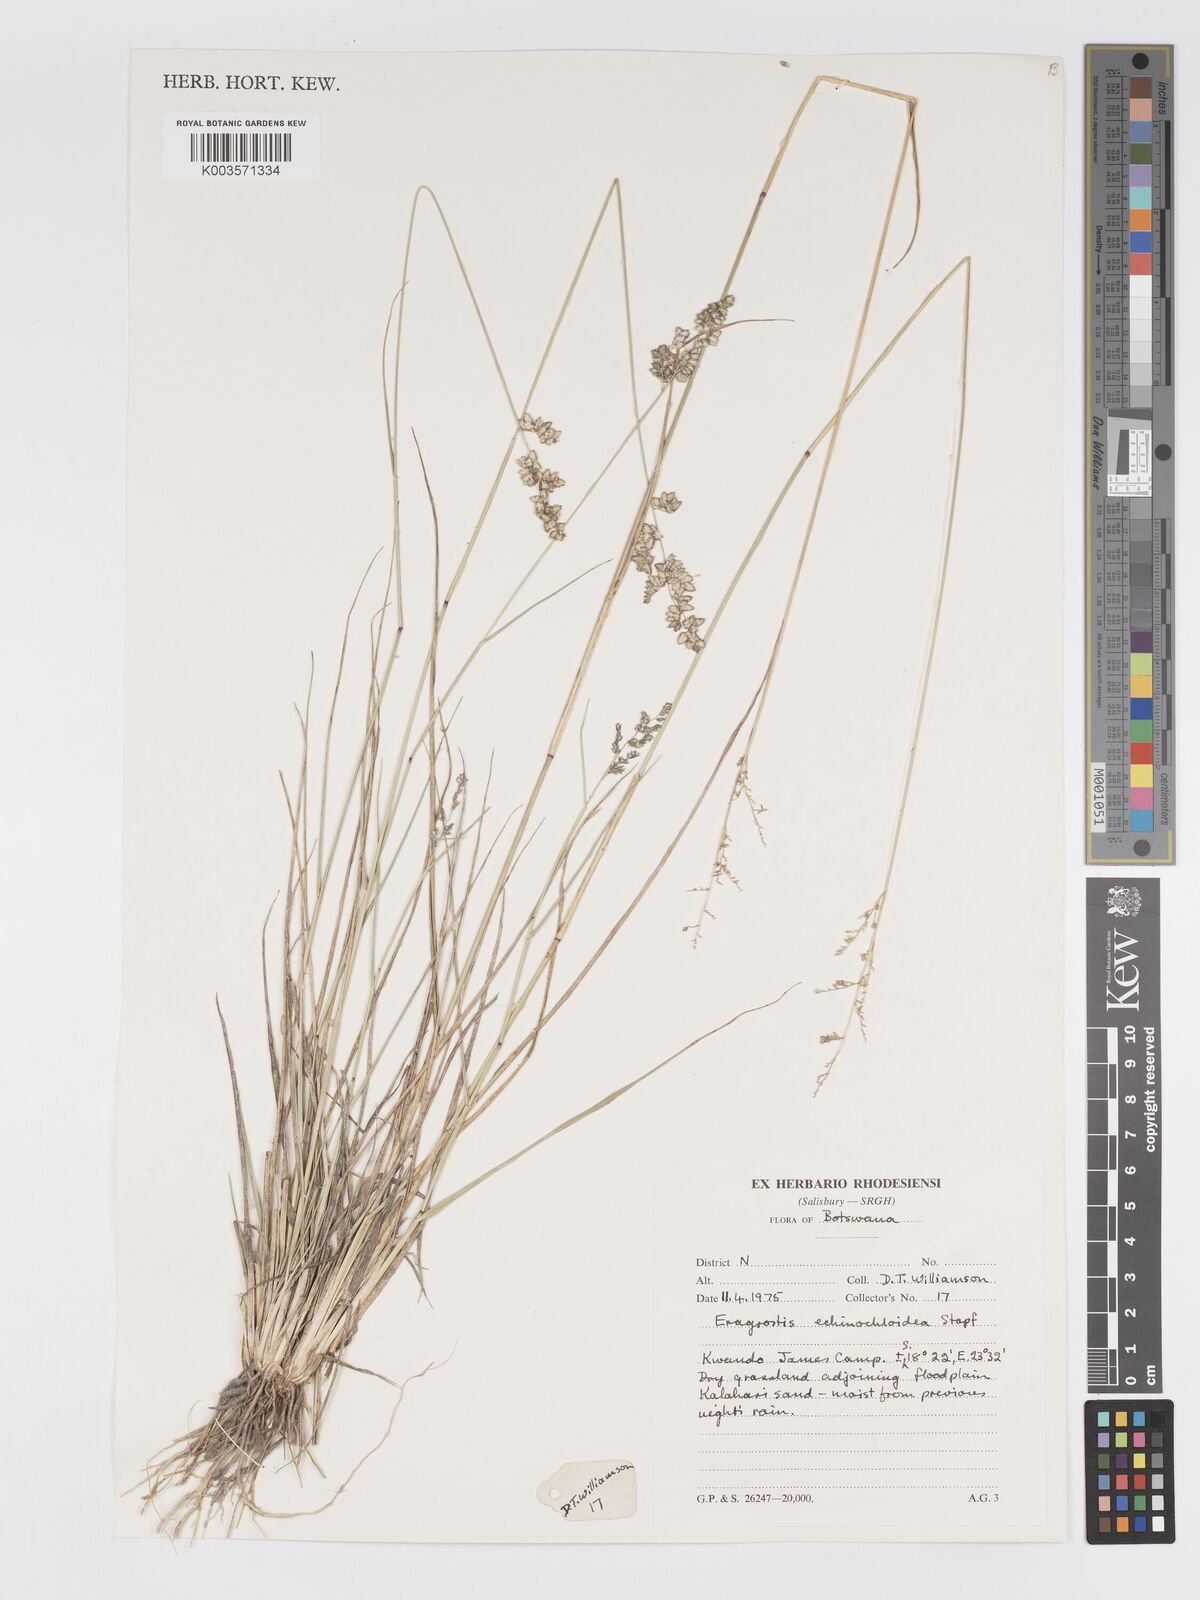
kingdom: Plantae
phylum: Tracheophyta
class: Liliopsida
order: Poales
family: Poaceae
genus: Eragrostis
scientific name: Eragrostis echinochloidea
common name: African lovegrass
